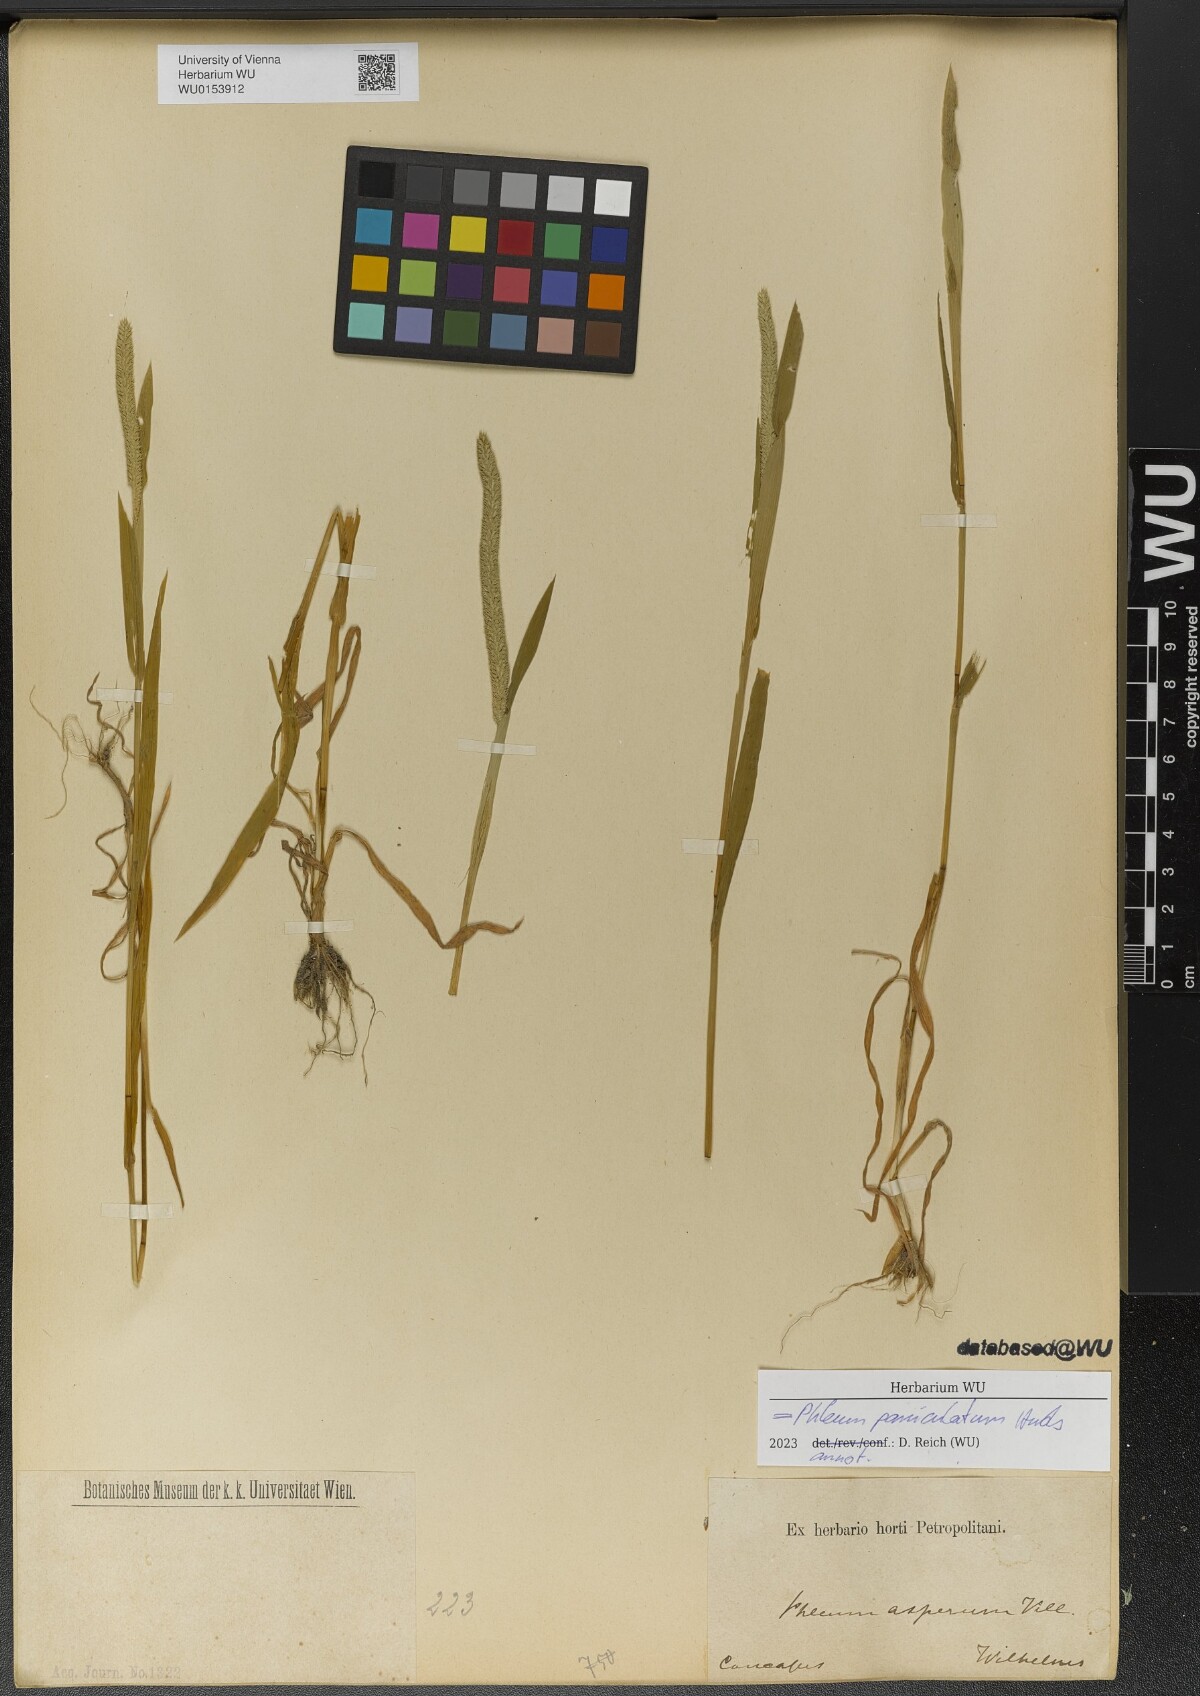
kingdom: Plantae
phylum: Tracheophyta
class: Liliopsida
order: Poales
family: Poaceae
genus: Phleum
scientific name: Phleum paniculatum
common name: British timothy
